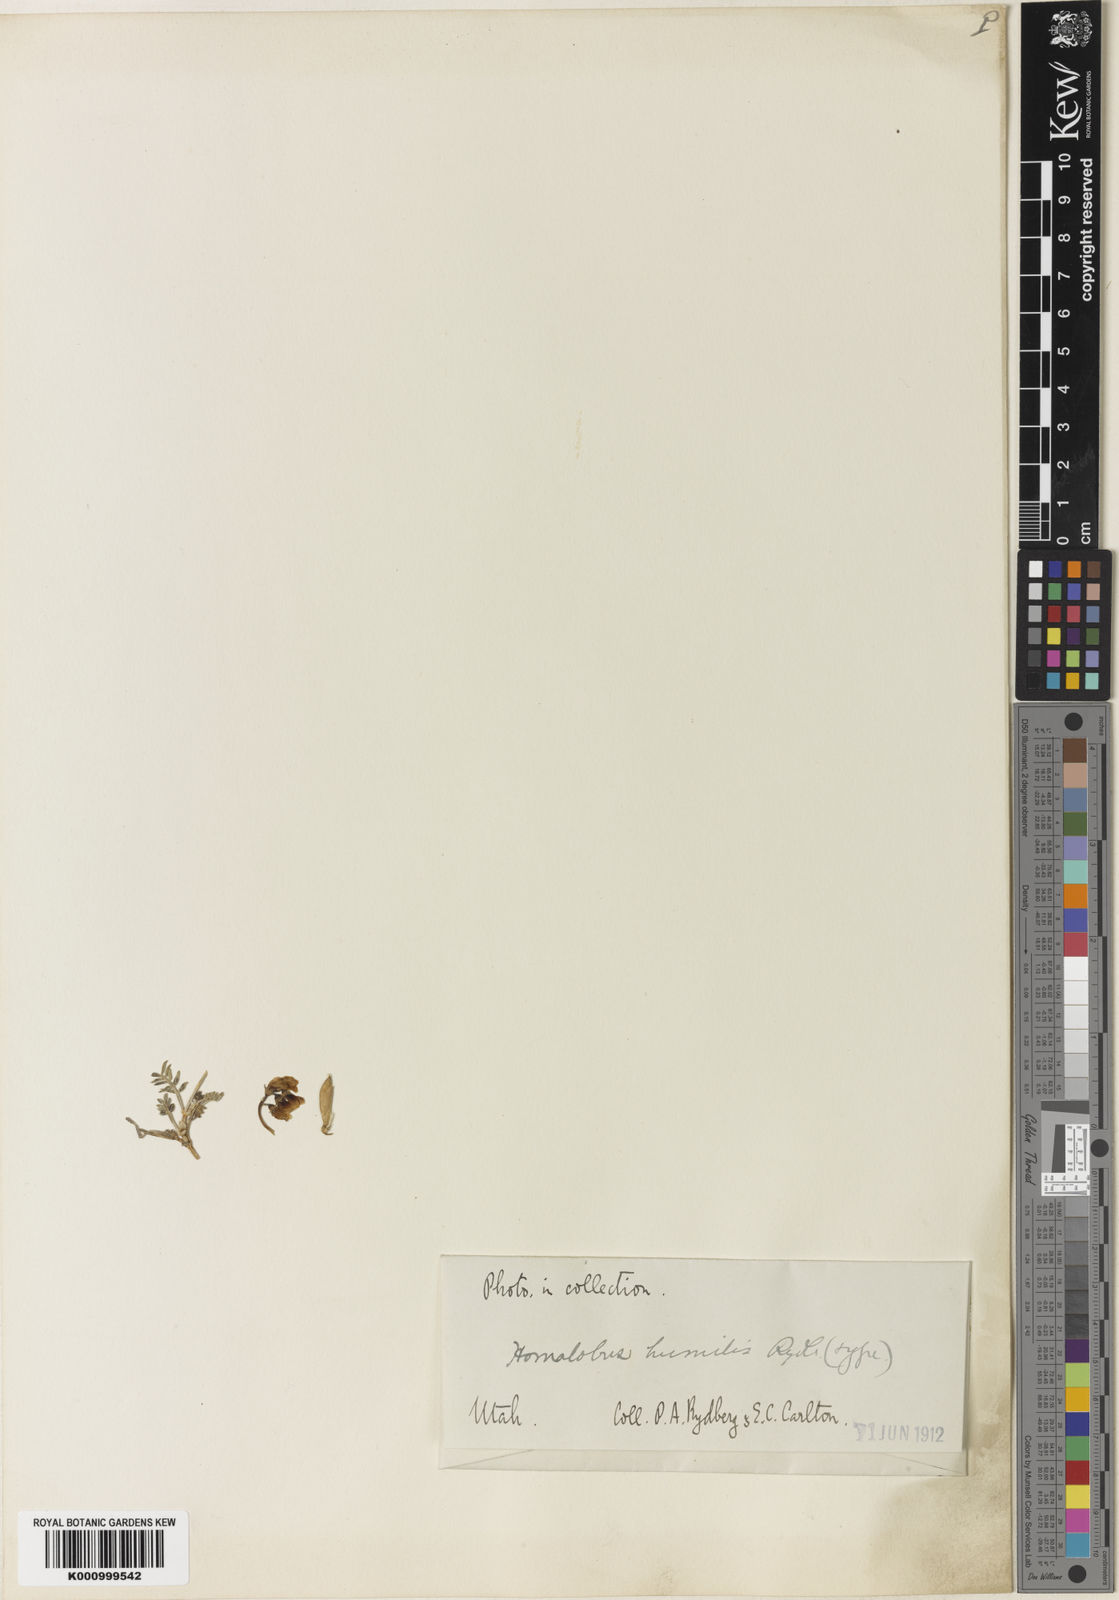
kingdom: Plantae
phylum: Tracheophyta
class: Magnoliopsida
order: Fabales
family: Fabaceae
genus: Astragalus
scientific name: Astragalus humilis
